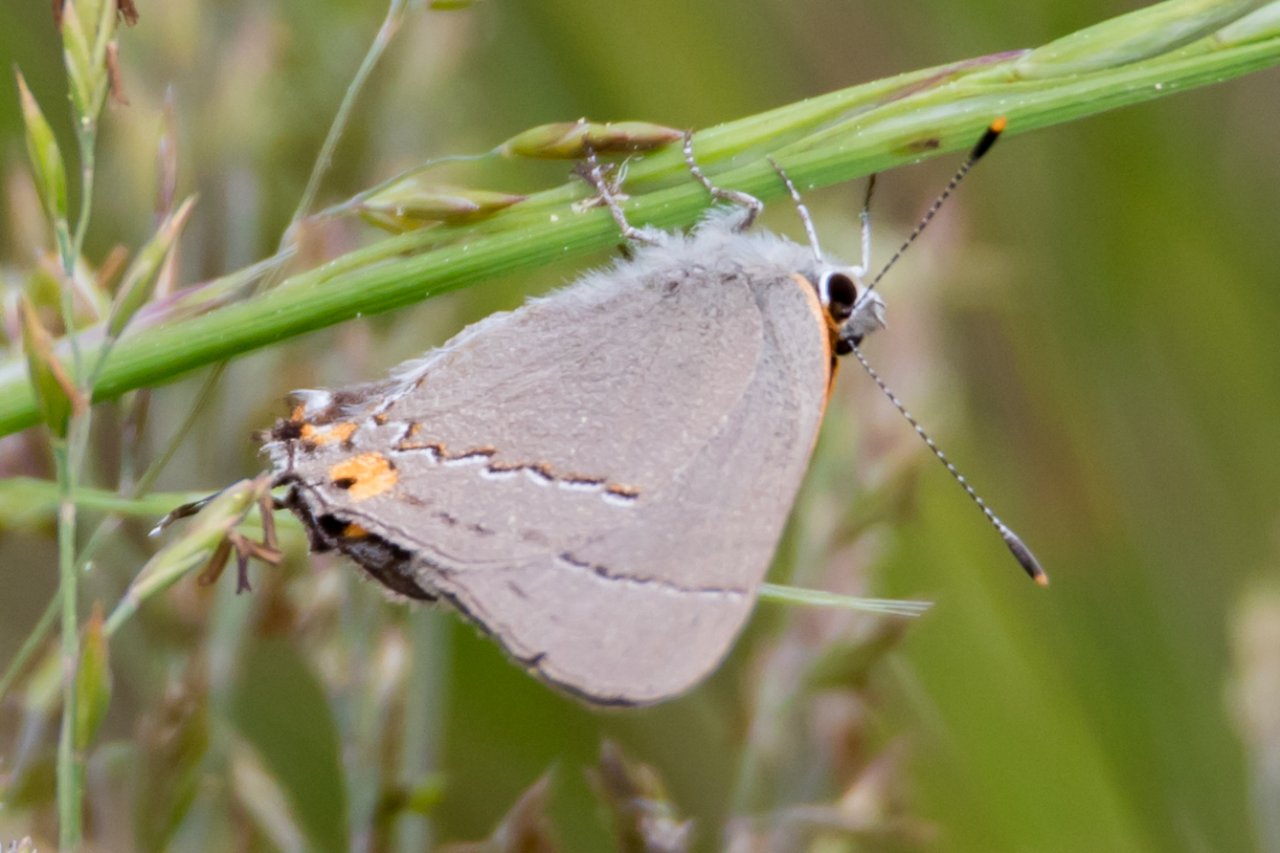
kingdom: Animalia
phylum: Arthropoda
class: Insecta
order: Lepidoptera
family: Lycaenidae
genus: Strymon
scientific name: Strymon melinus
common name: Gray Hairstreak
